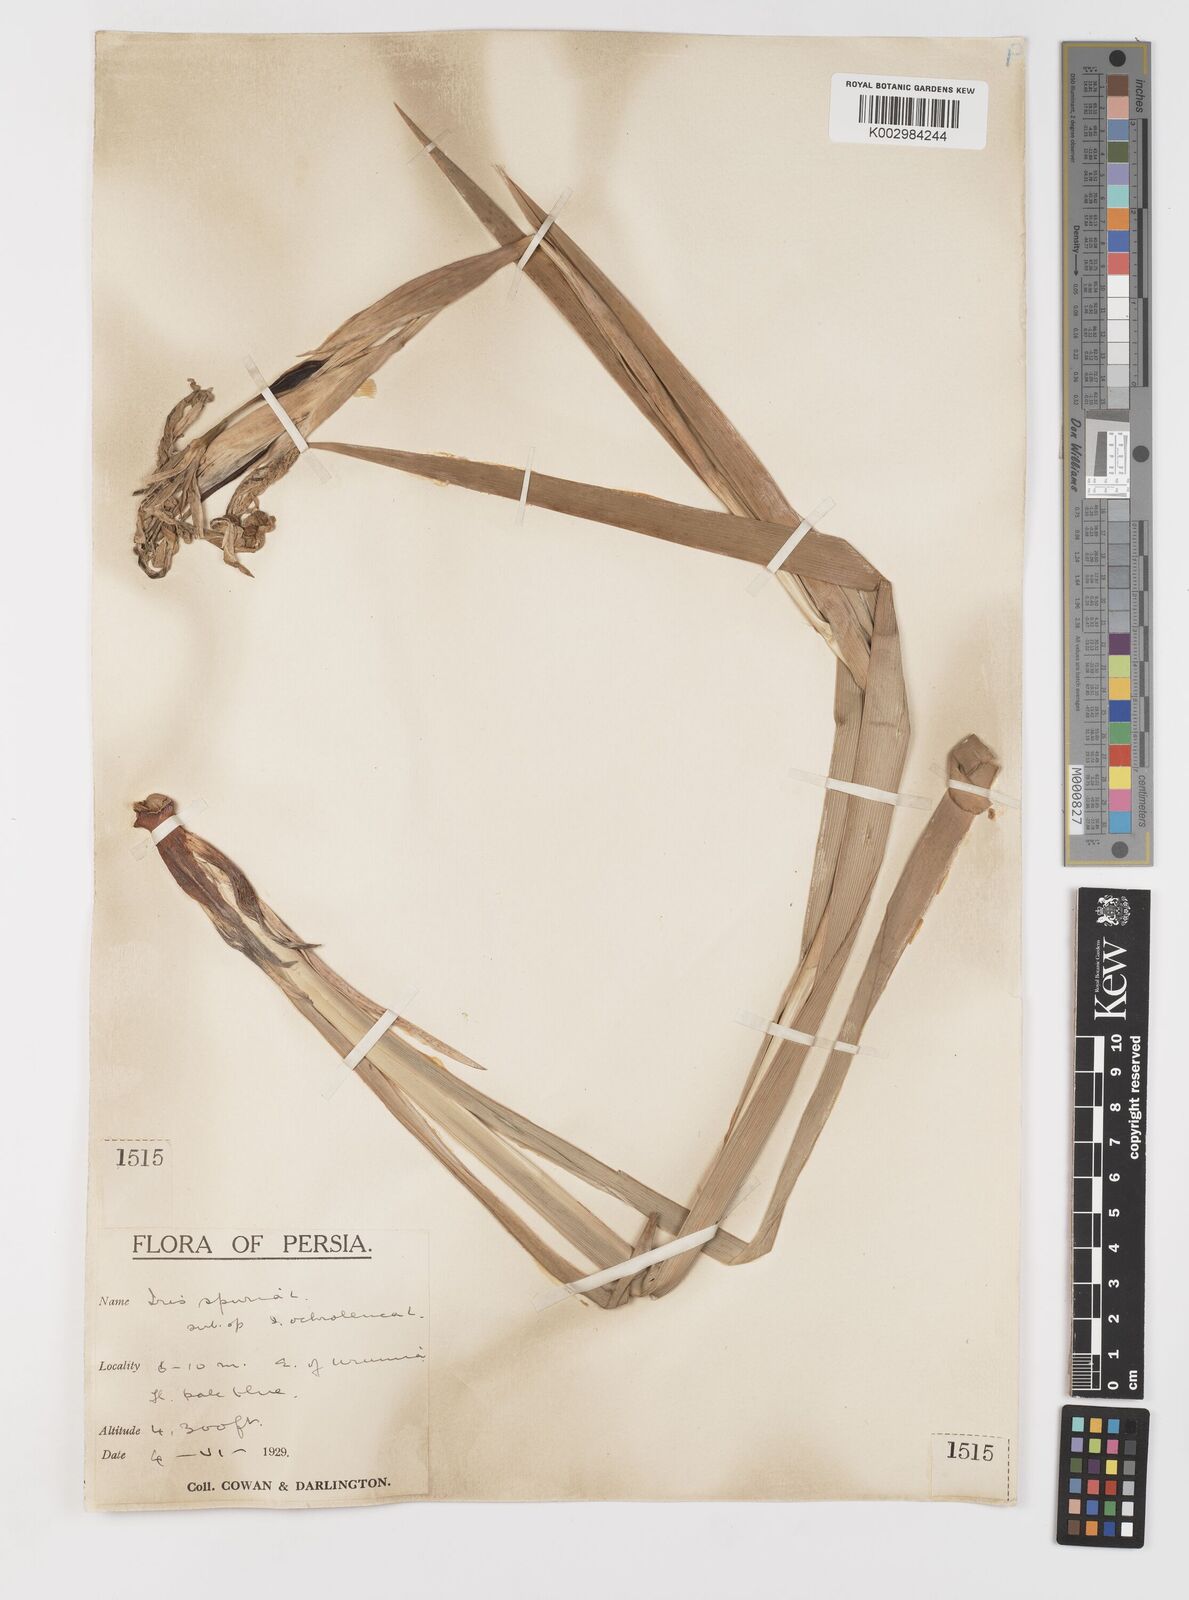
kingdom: Plantae
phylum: Tracheophyta
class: Liliopsida
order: Asparagales
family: Iridaceae
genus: Iris
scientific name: Iris spuria
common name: Blue iris
